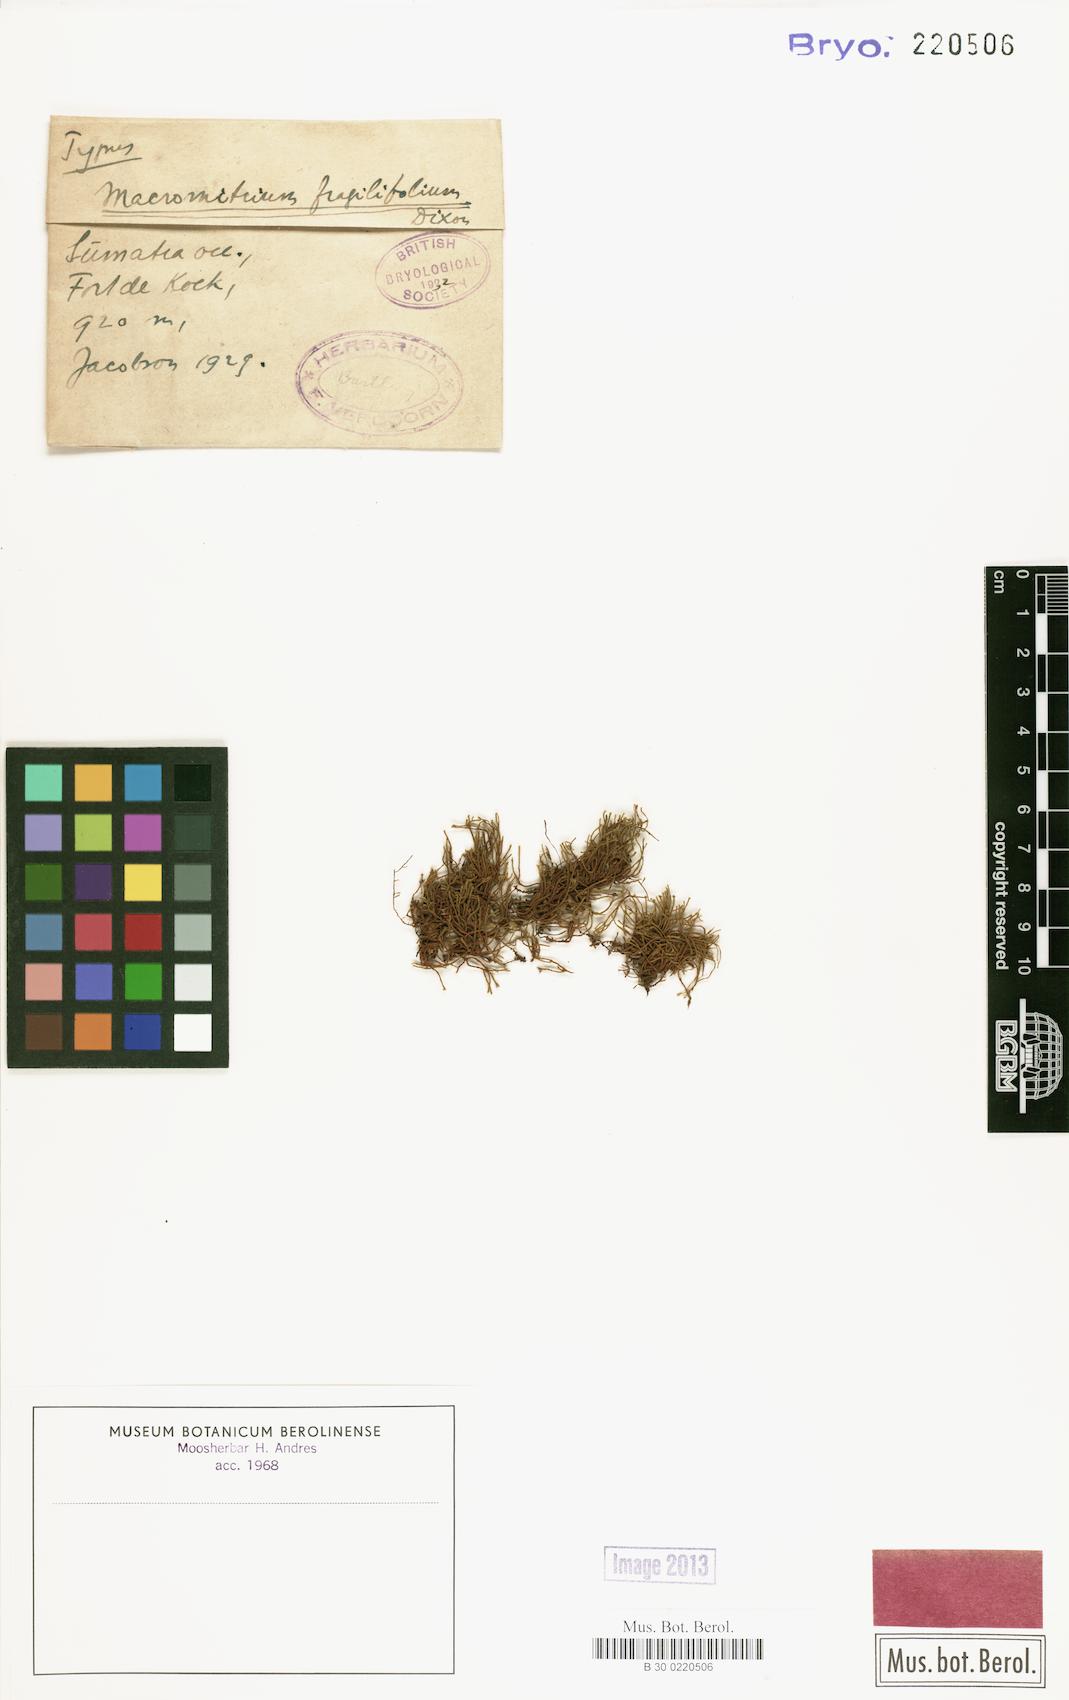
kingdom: Plantae
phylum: Bryophyta
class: Bryopsida
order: Orthotrichales
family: Orthotrichaceae
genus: Macromitrium
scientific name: Macromitrium orthostichum
